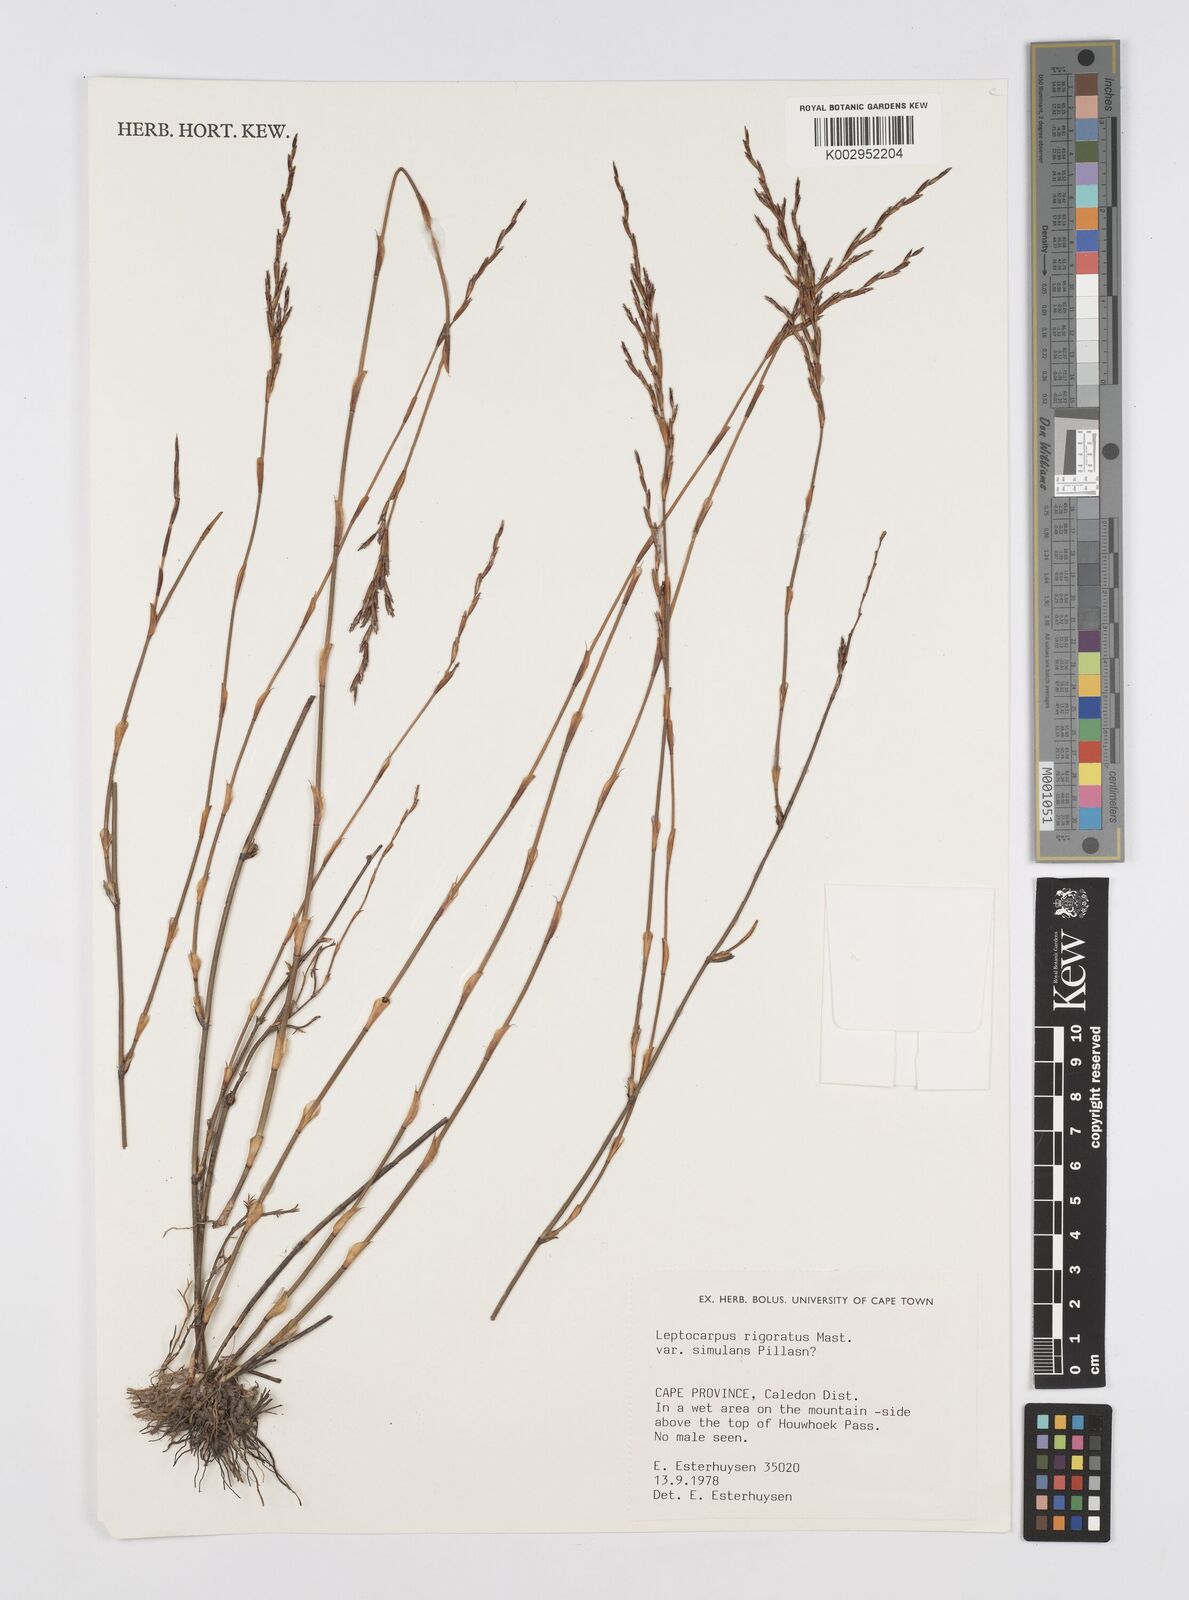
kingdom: Plantae
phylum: Tracheophyta
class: Liliopsida
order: Poales
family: Restionaceae
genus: Restio
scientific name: Restio rigoratus
